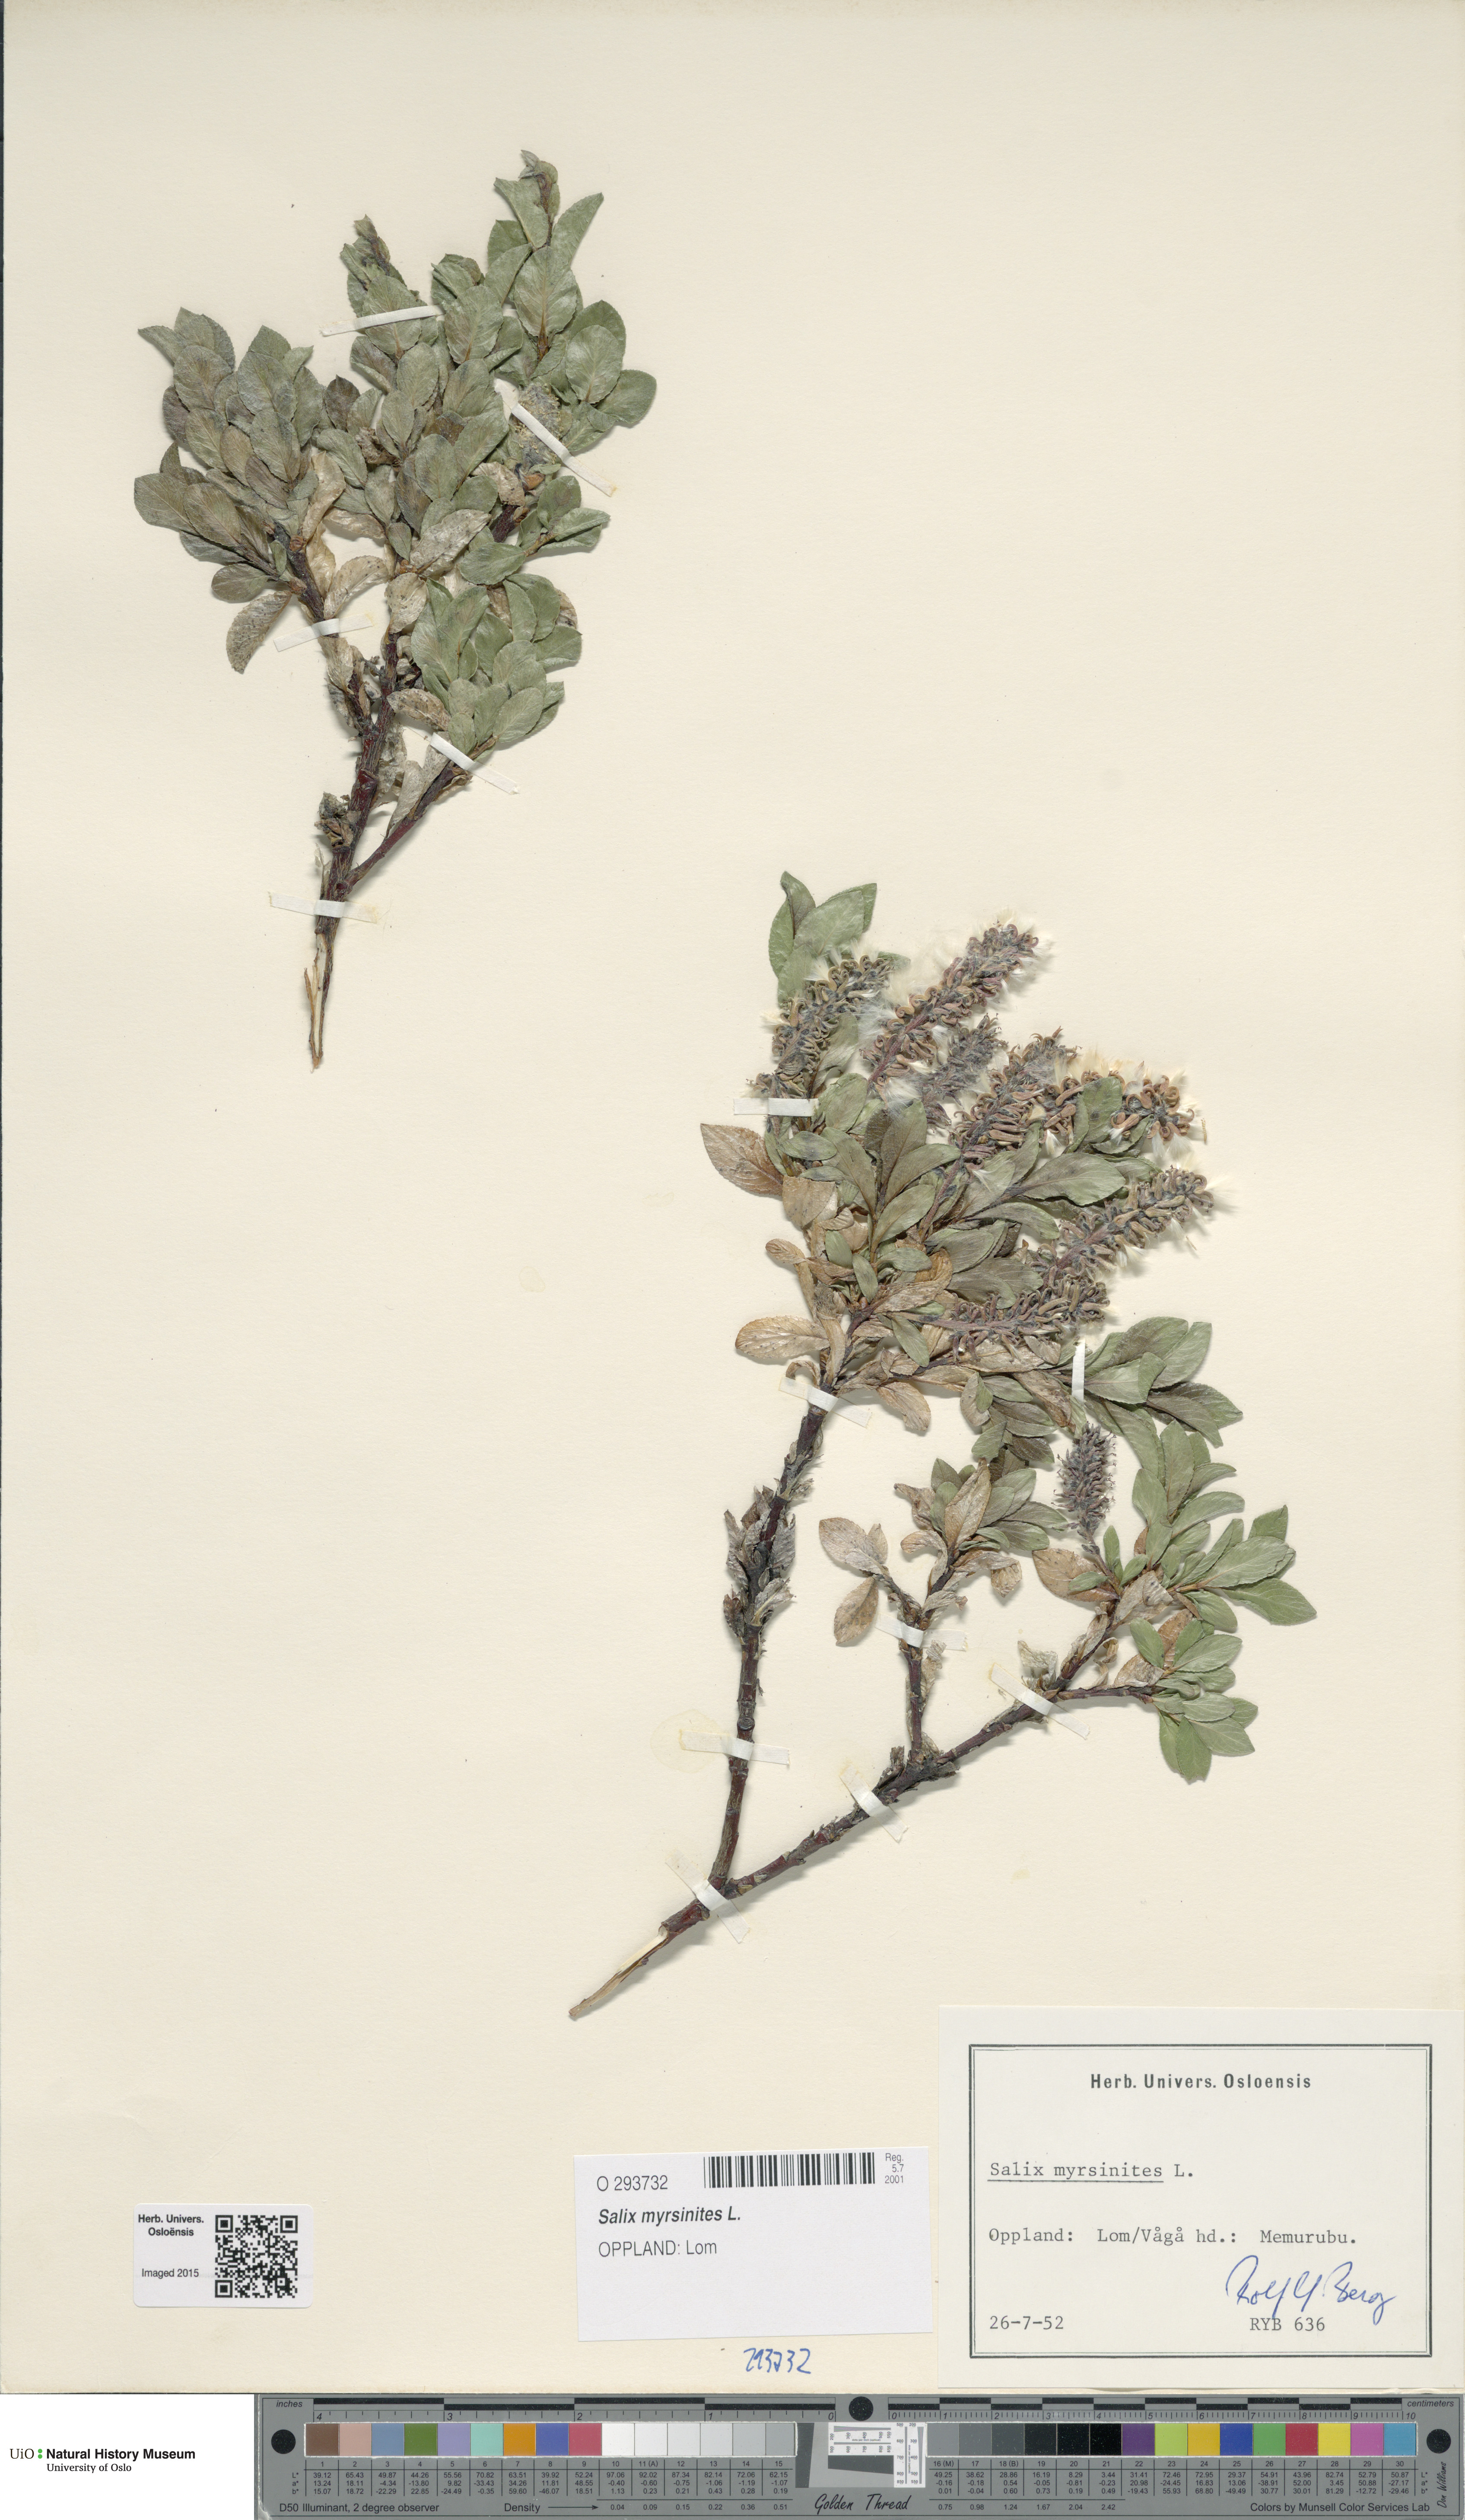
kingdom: Plantae
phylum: Tracheophyta
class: Magnoliopsida
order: Malpighiales
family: Salicaceae
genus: Salix
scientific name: Salix myrsinites
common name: Myrtle willow
